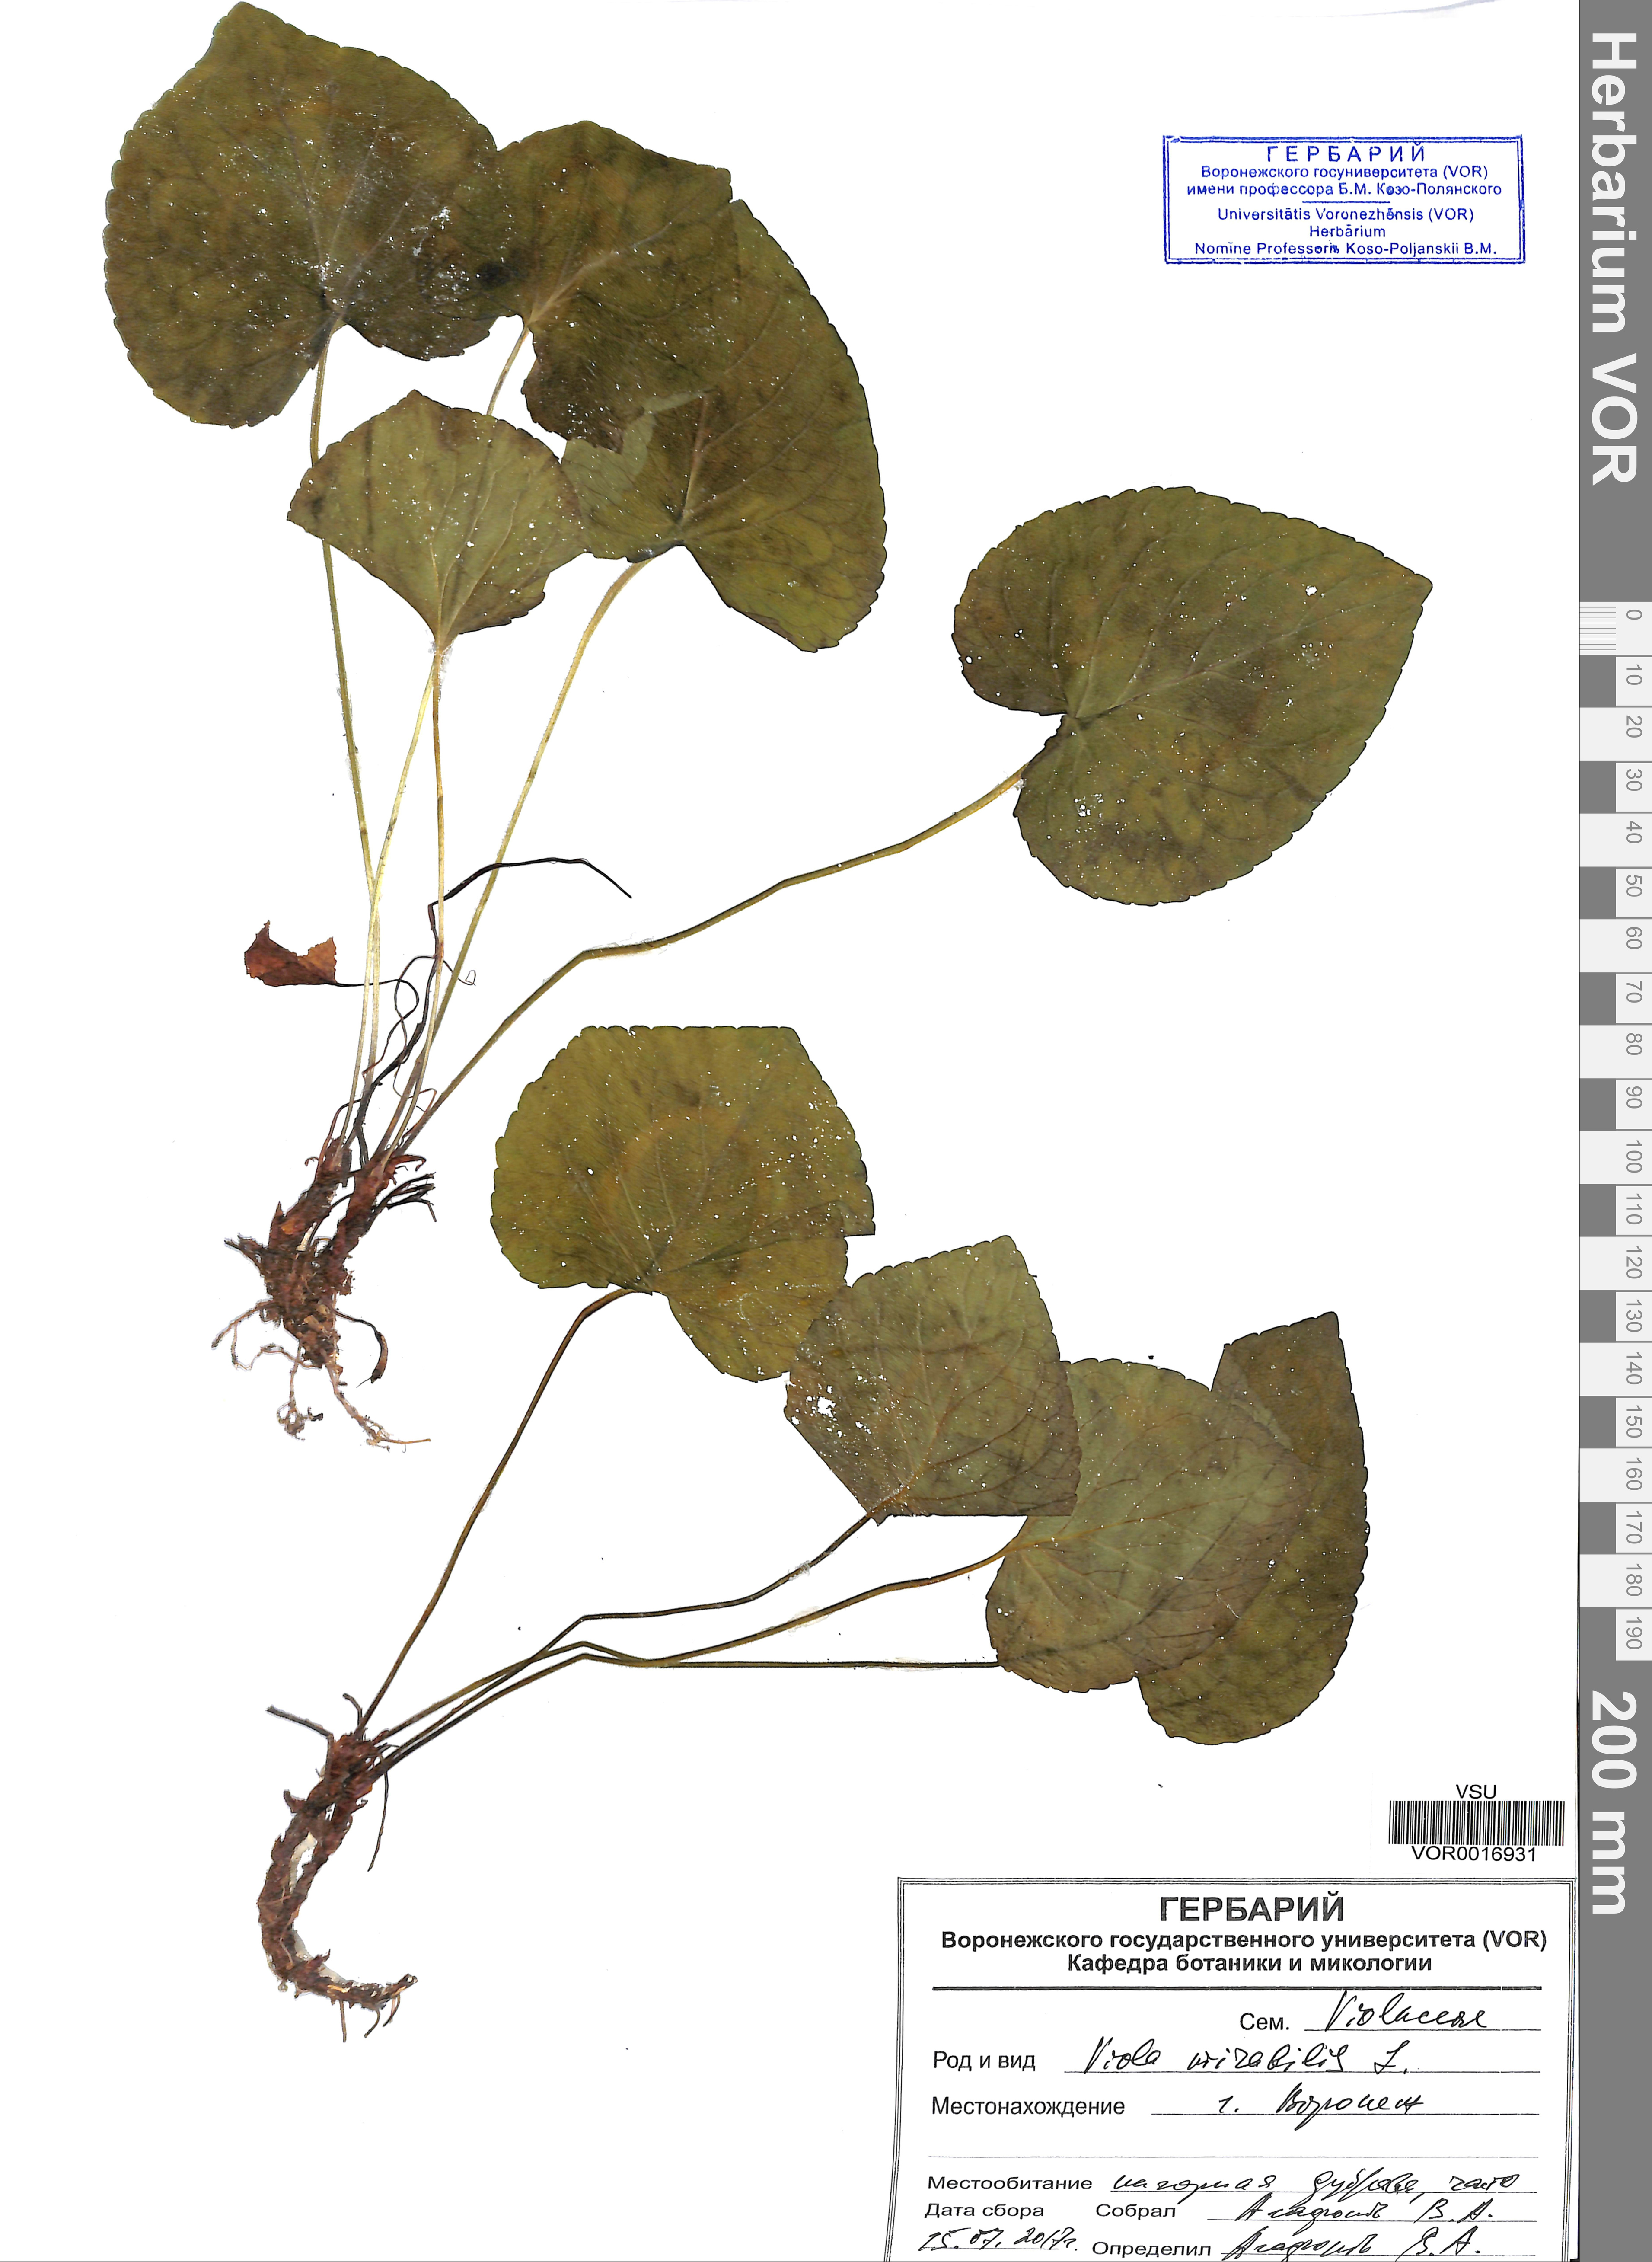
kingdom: Plantae
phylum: Tracheophyta
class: Magnoliopsida
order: Malpighiales
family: Violaceae
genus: Viola
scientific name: Viola mirabilis
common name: Wonder violet
